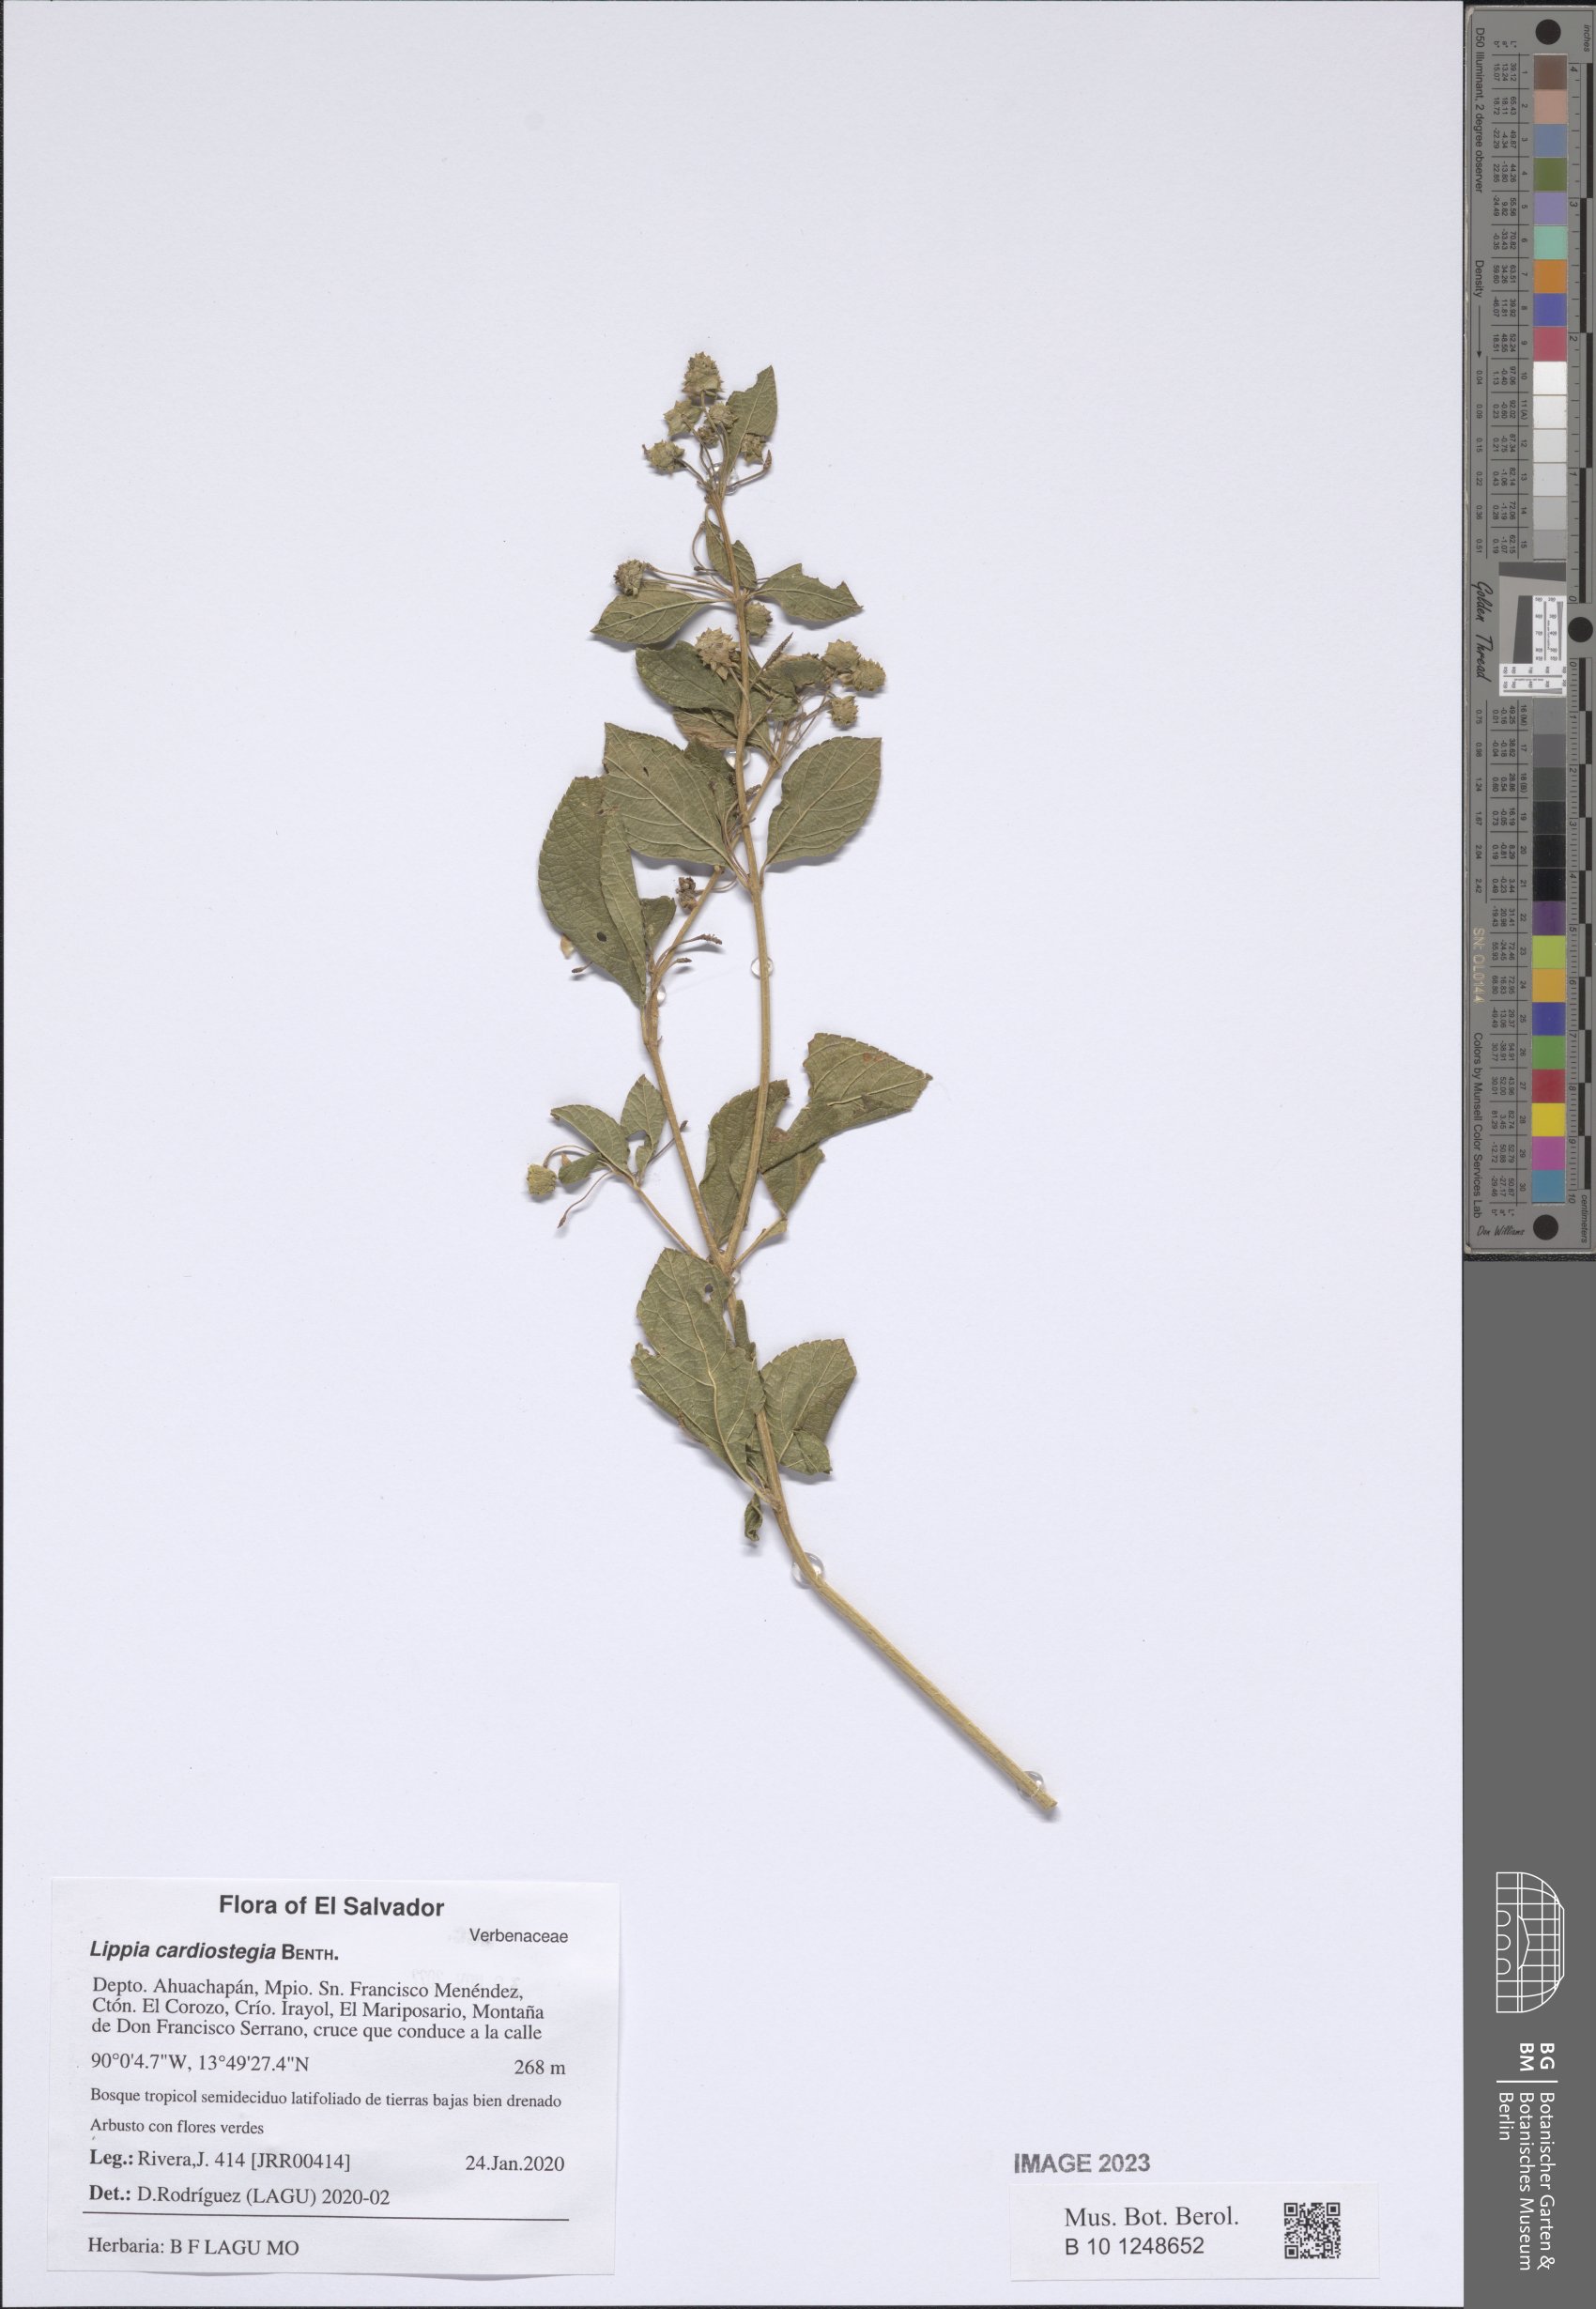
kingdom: Plantae
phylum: Tracheophyta
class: Magnoliopsida
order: Lamiales
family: Verbenaceae
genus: Lippia
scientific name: Lippia cardiostegia
